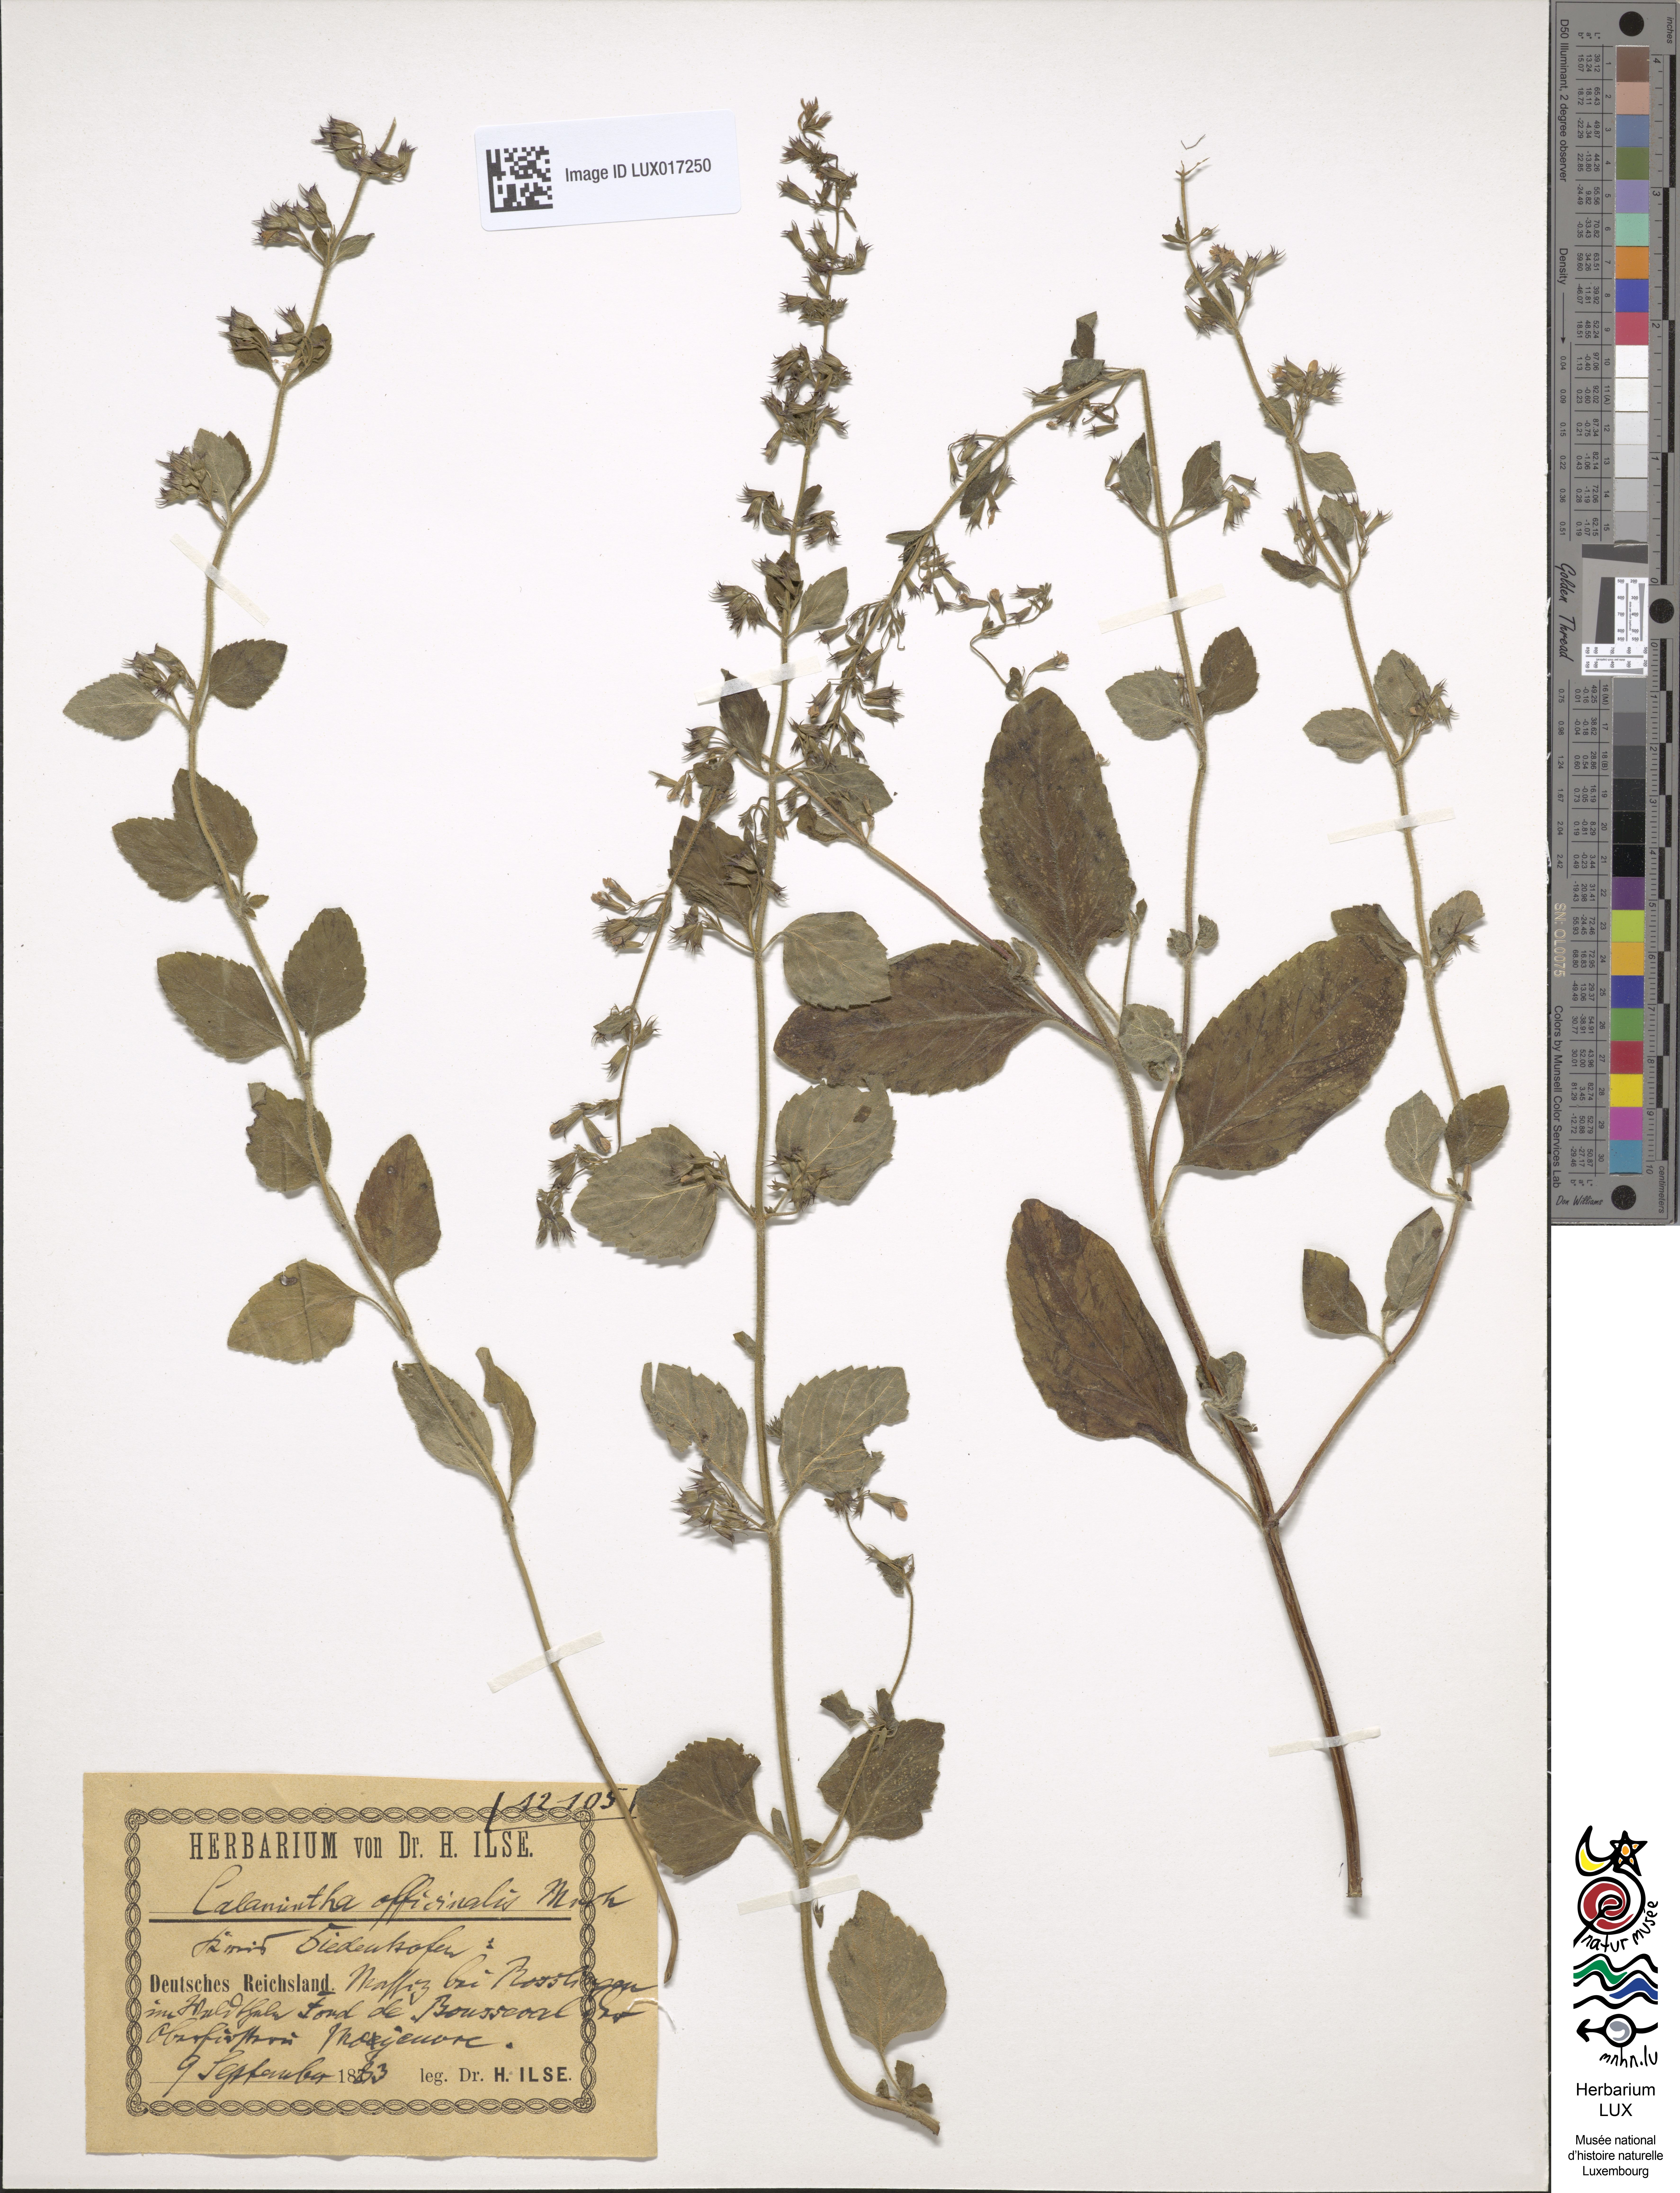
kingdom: Plantae
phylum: Tracheophyta
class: Magnoliopsida
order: Lamiales
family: Lamiaceae
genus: Clinopodium
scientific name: Clinopodium menthifolium
